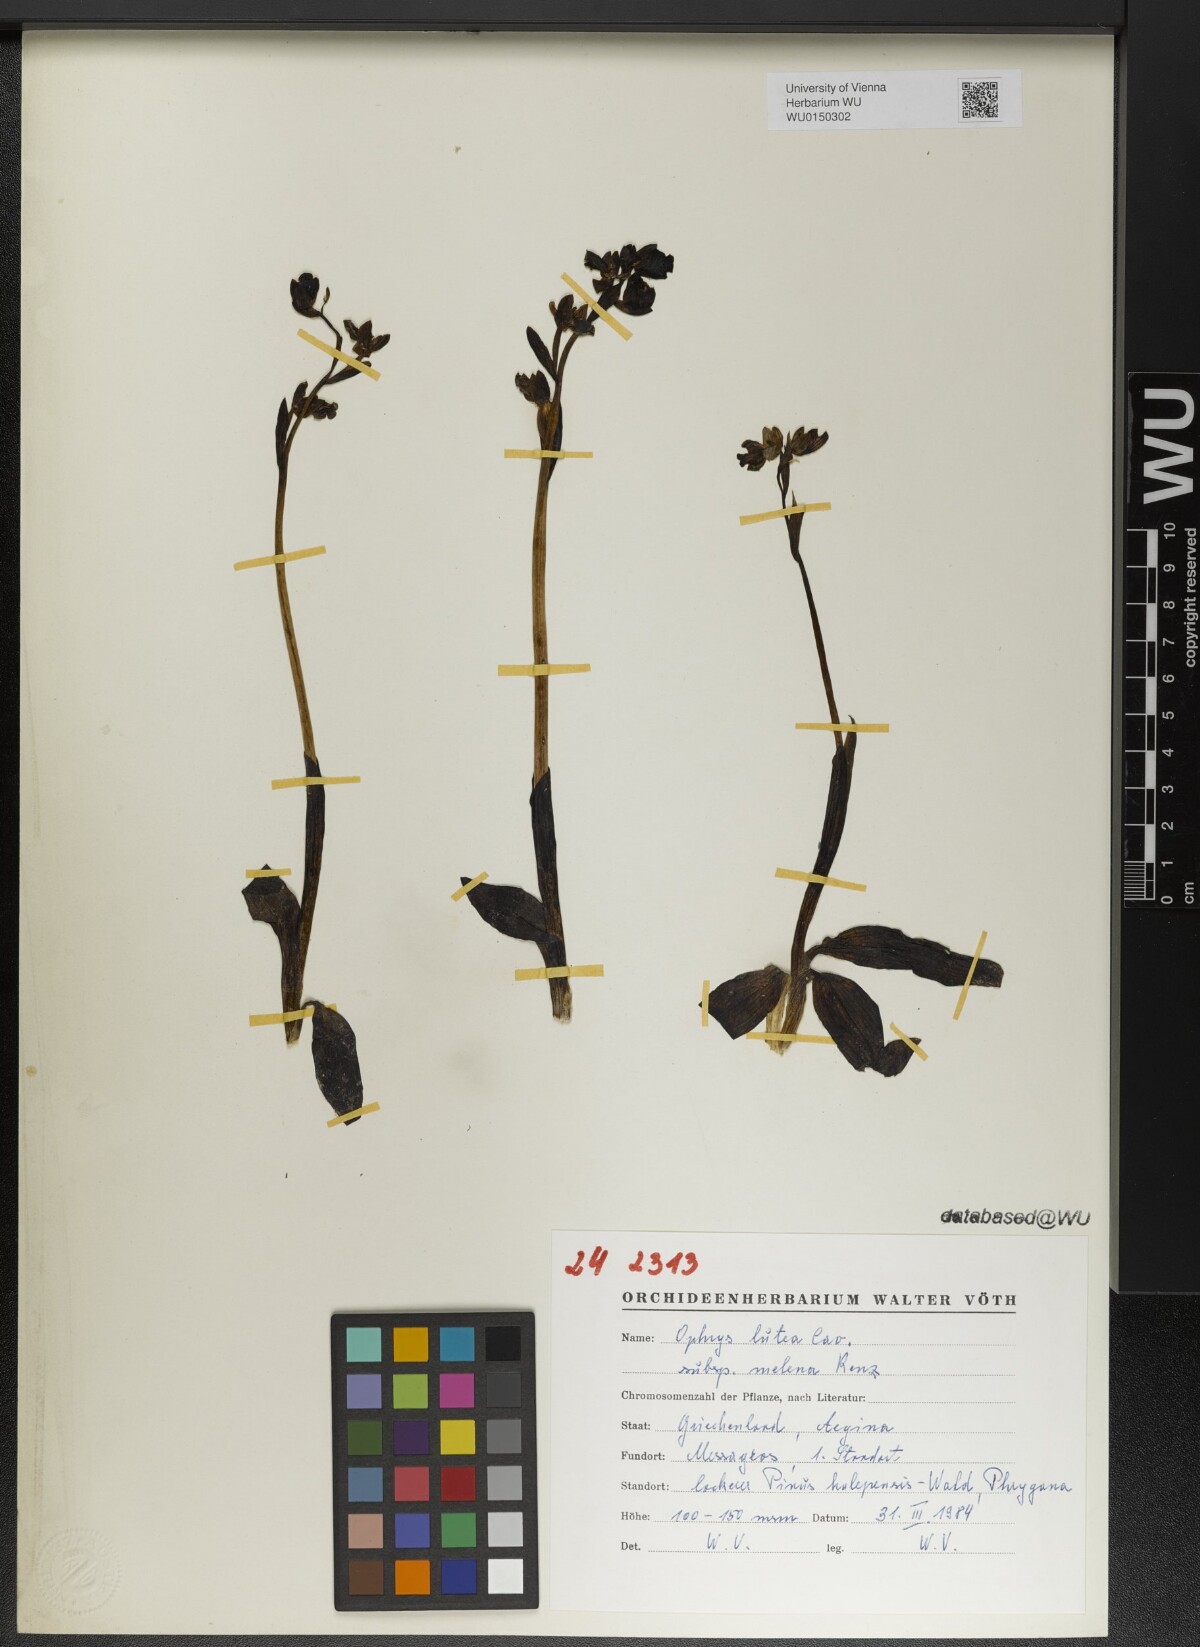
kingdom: Plantae
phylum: Tracheophyta
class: Liliopsida
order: Asparagales
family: Orchidaceae
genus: Ophrys
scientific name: Ophrys lutea
